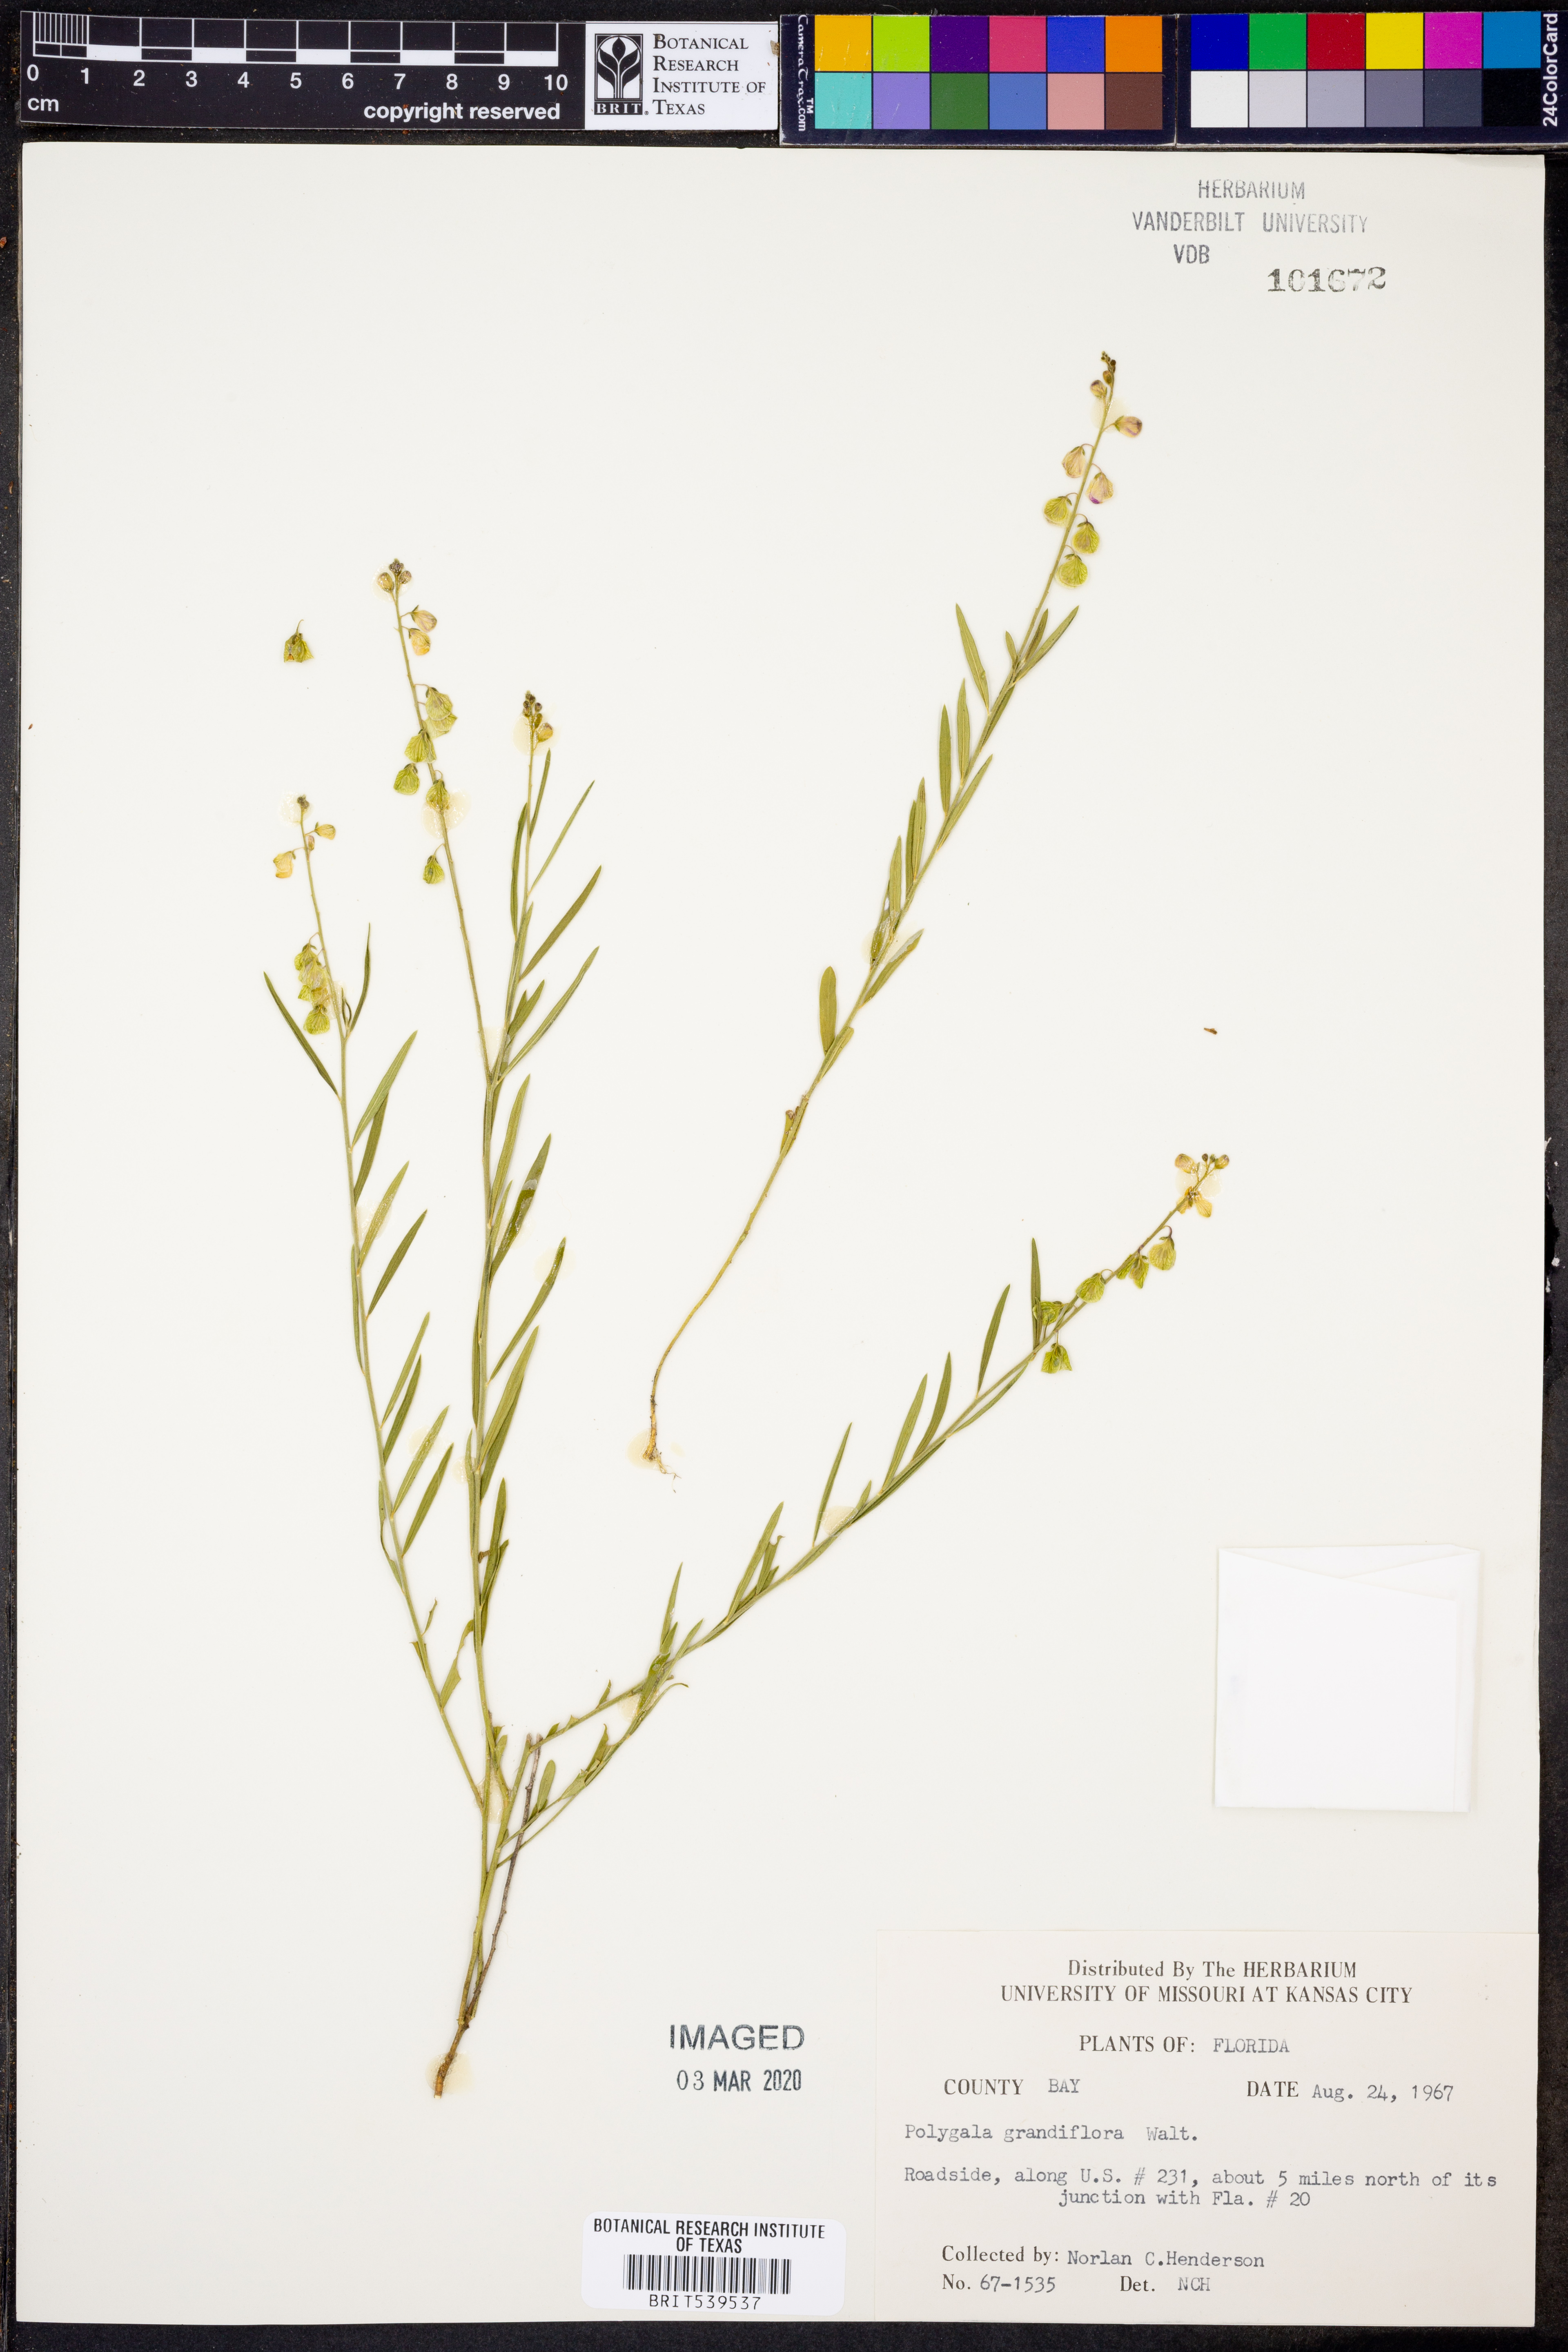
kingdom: Plantae
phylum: Tracheophyta
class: Magnoliopsida
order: Fabales
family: Polygalaceae
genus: Asemeia
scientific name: Asemeia grandiflora
